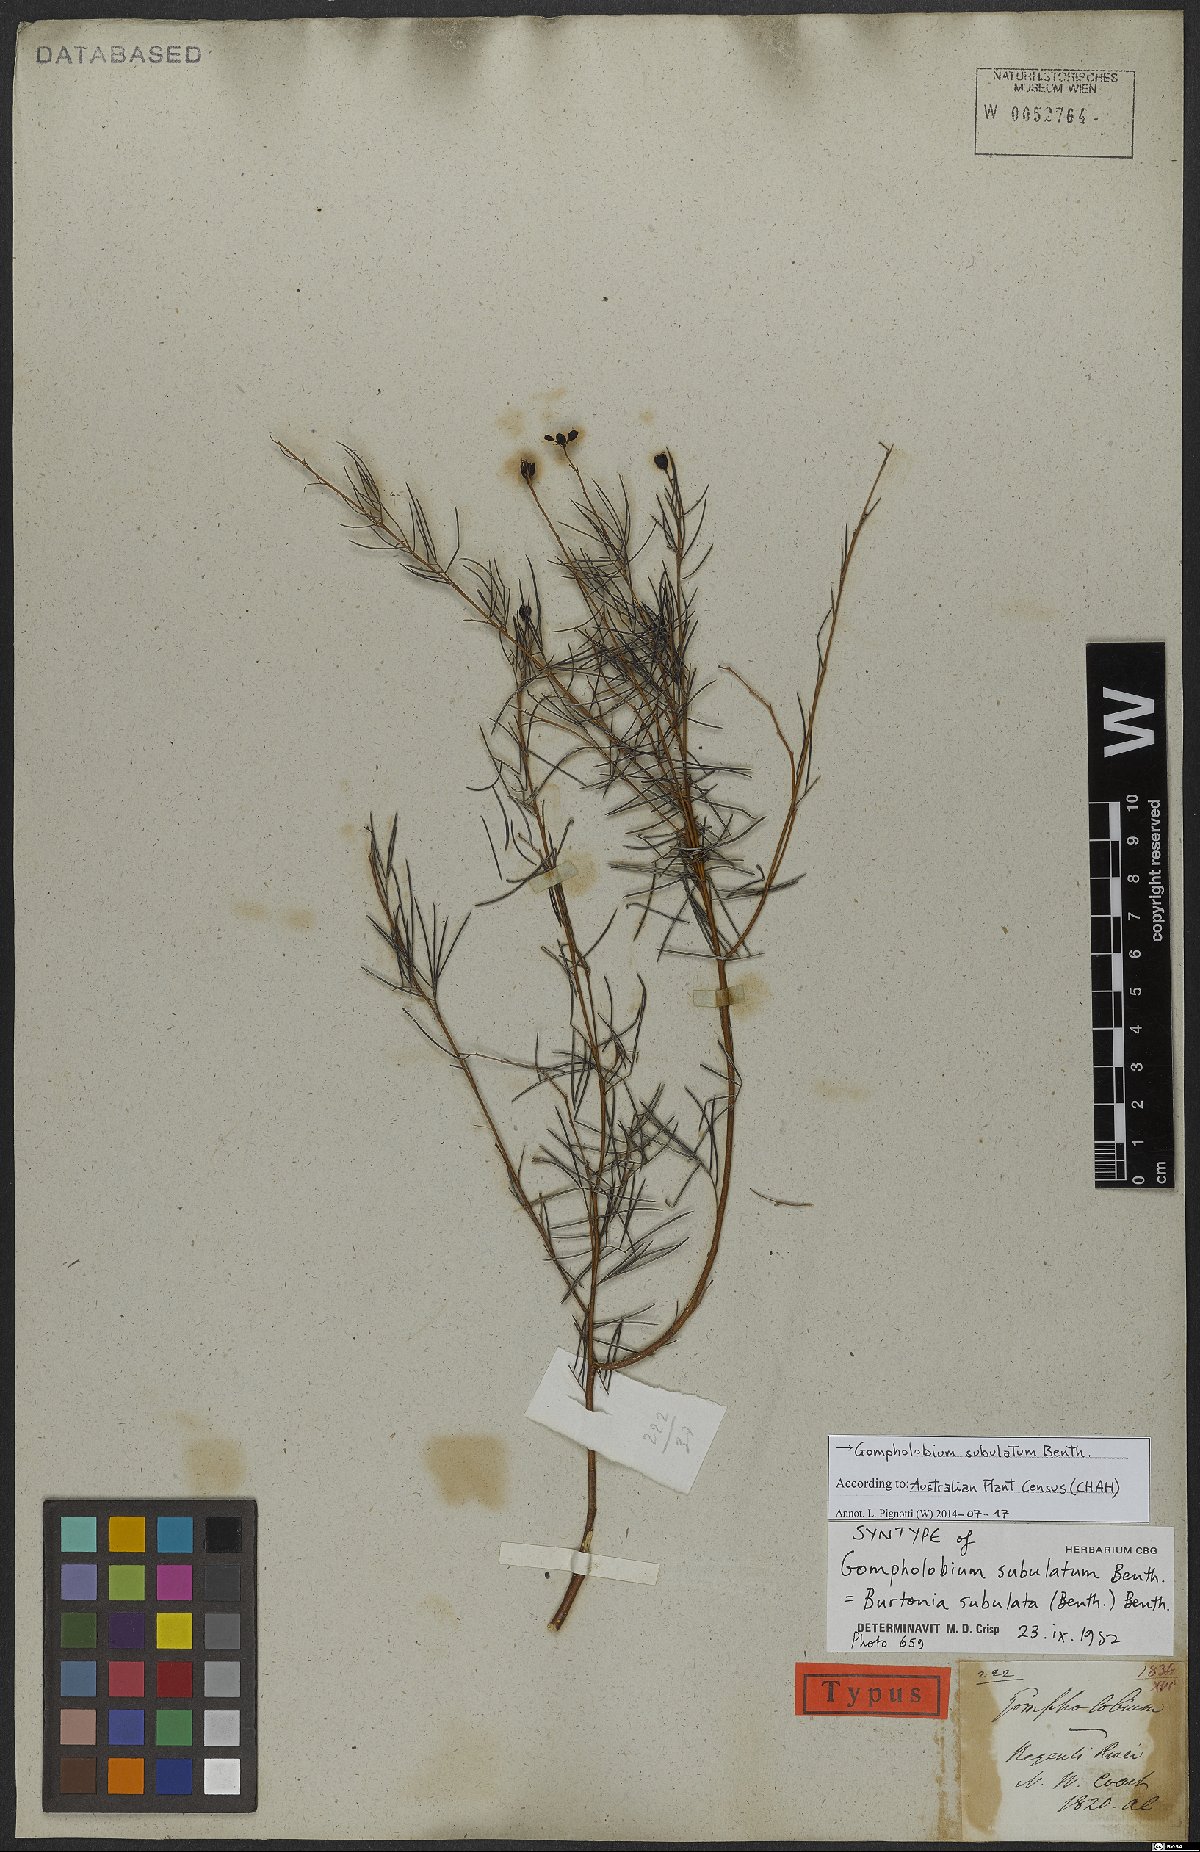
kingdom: Plantae
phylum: Tracheophyta
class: Magnoliopsida
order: Fabales
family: Fabaceae
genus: Gompholobium
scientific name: Gompholobium subulatum
